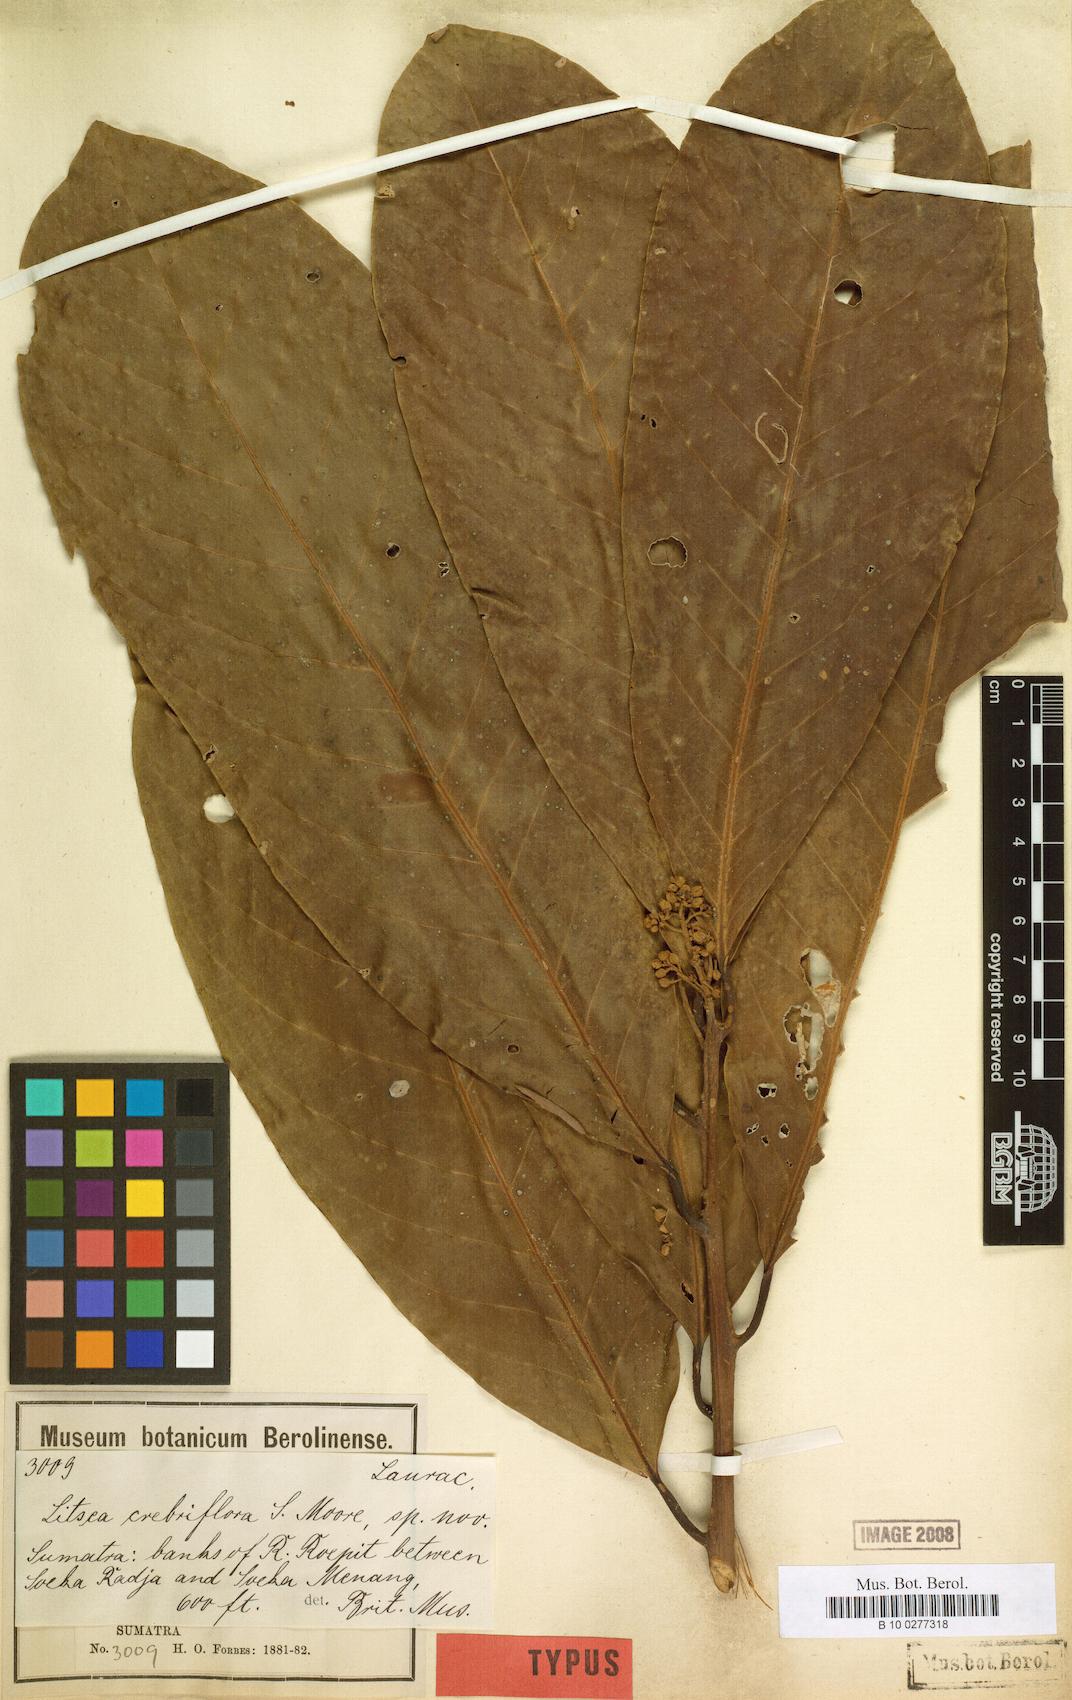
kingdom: Plantae
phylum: Tracheophyta
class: Magnoliopsida
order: Laurales
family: Lauraceae
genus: Litsea
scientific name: Litsea crebriflora
